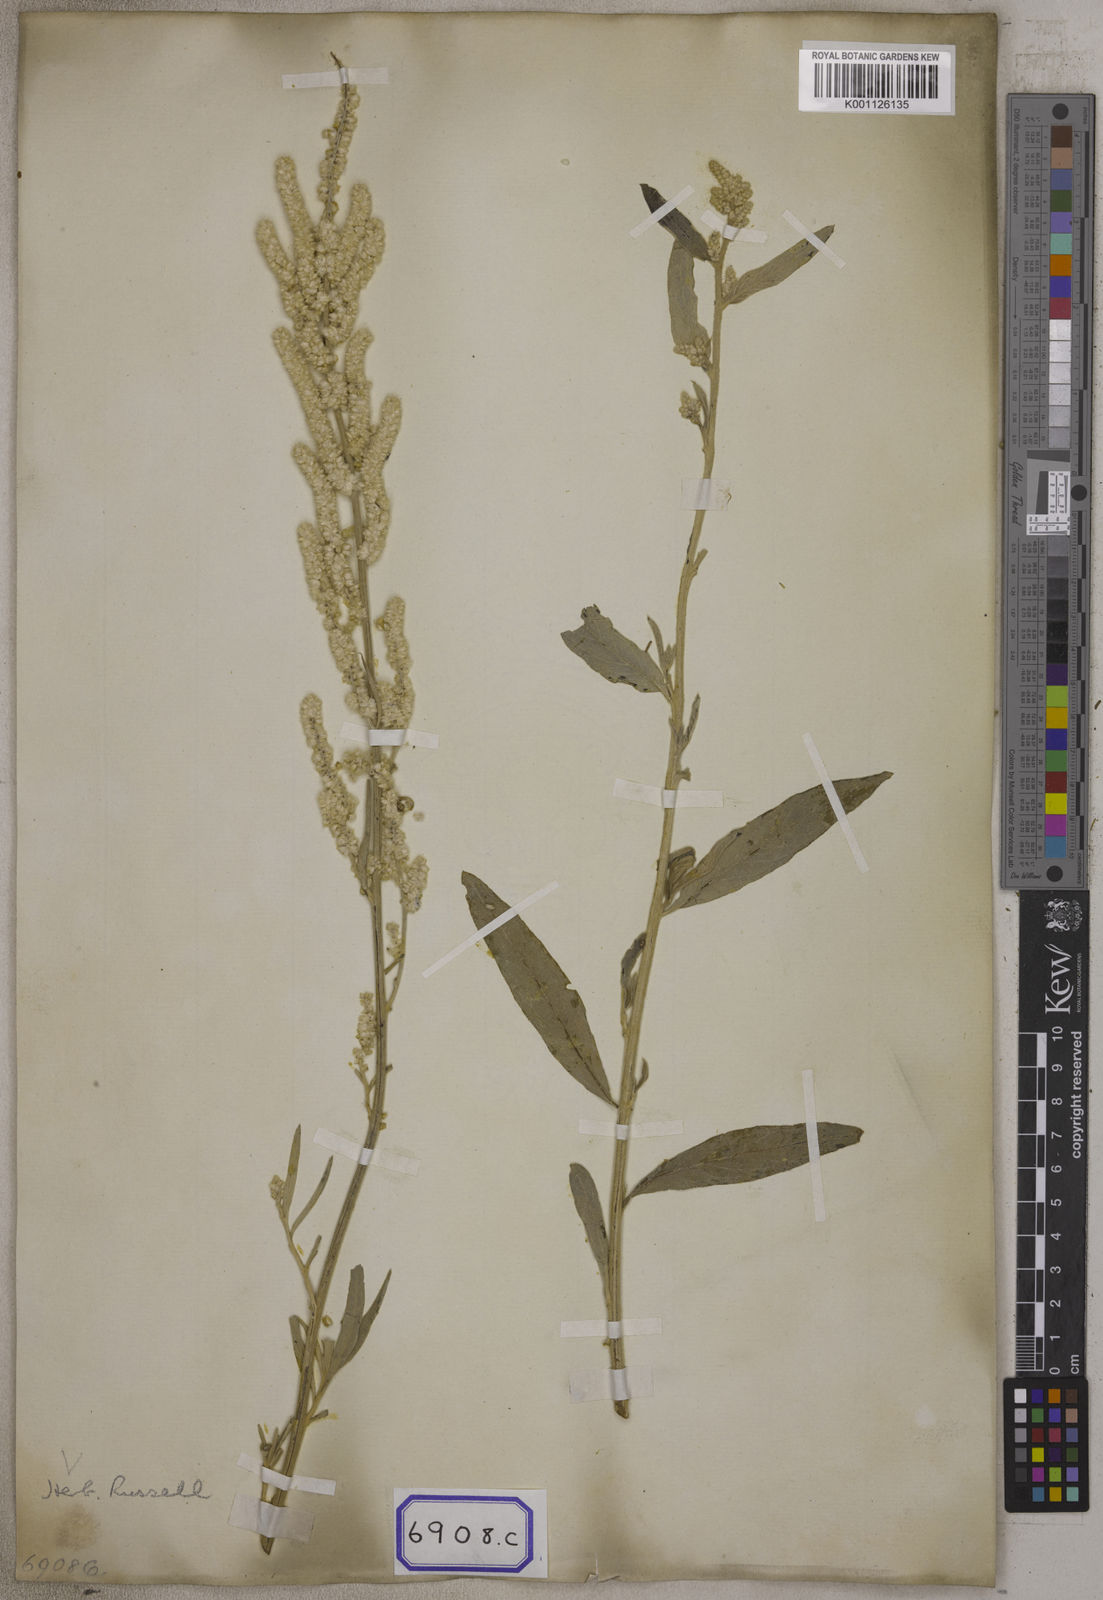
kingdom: Plantae
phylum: Tracheophyta
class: Magnoliopsida
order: Caryophyllales
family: Amaranthaceae
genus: Aerva
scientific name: Aerva
